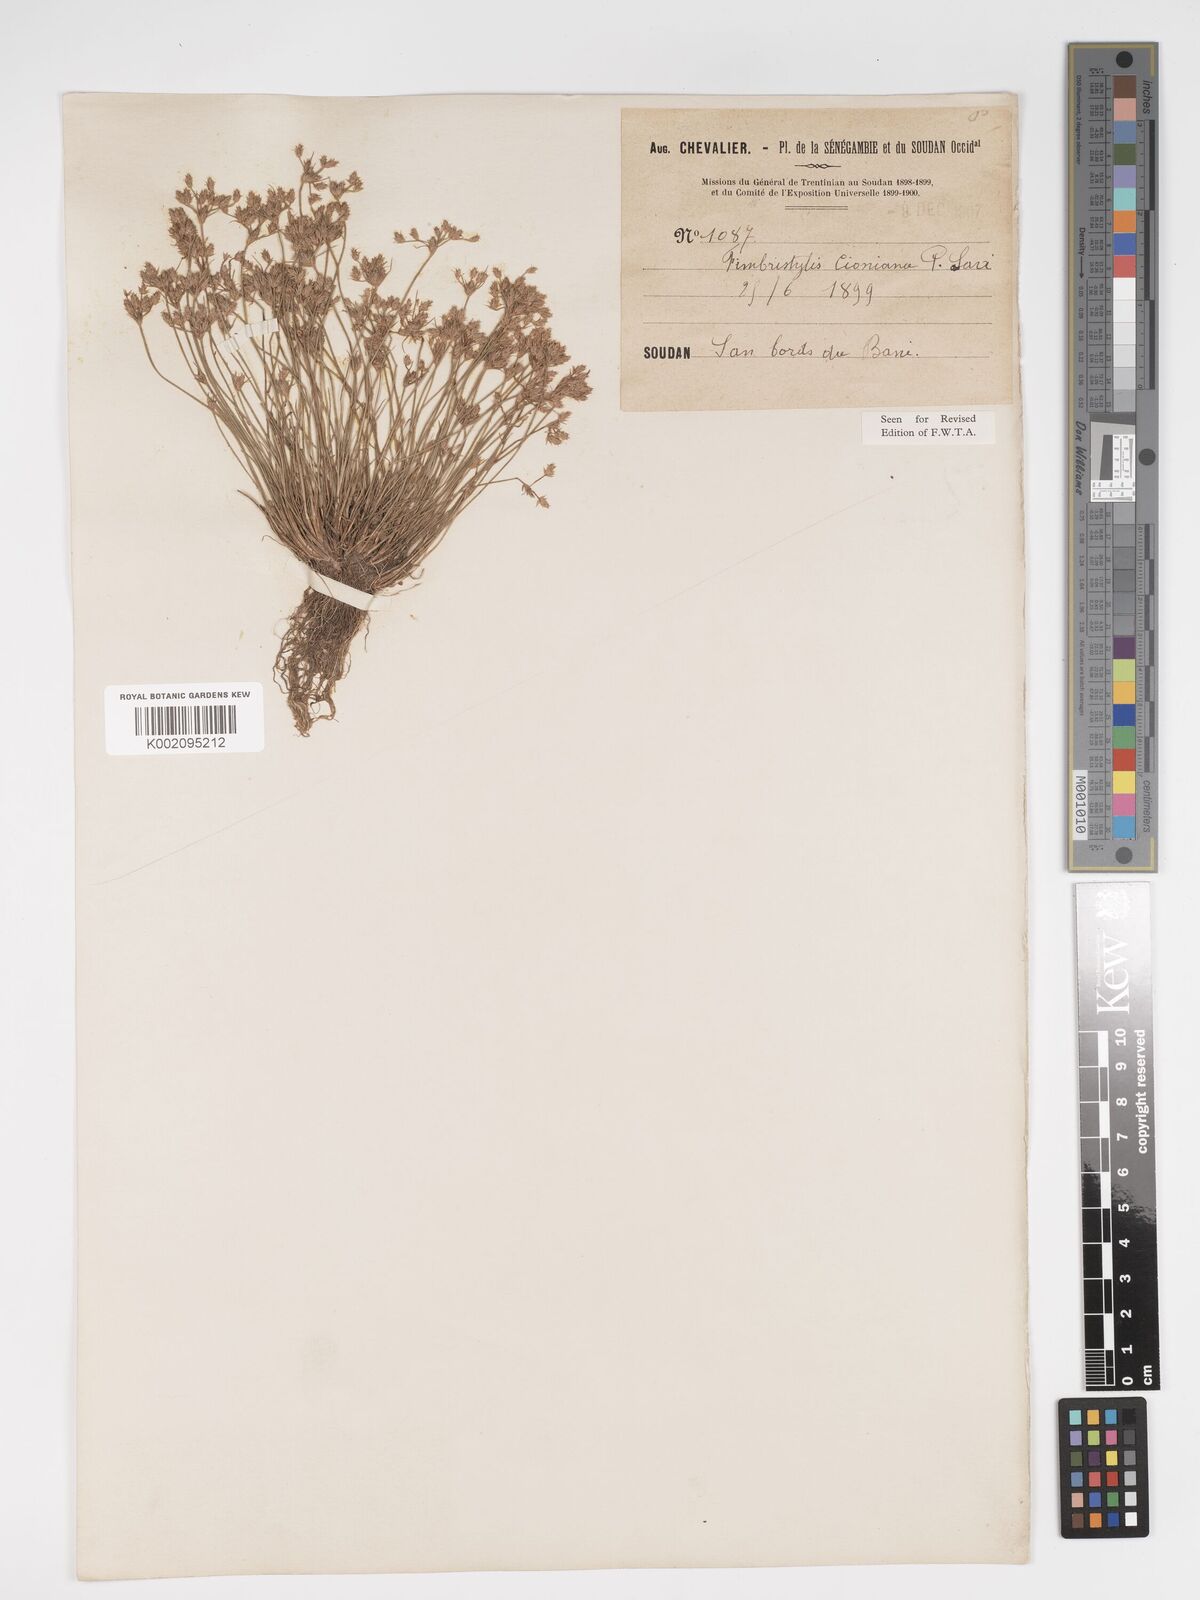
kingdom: Plantae
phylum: Tracheophyta
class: Liliopsida
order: Poales
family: Cyperaceae
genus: Bulbostylis
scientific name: Bulbostylis cioniana
